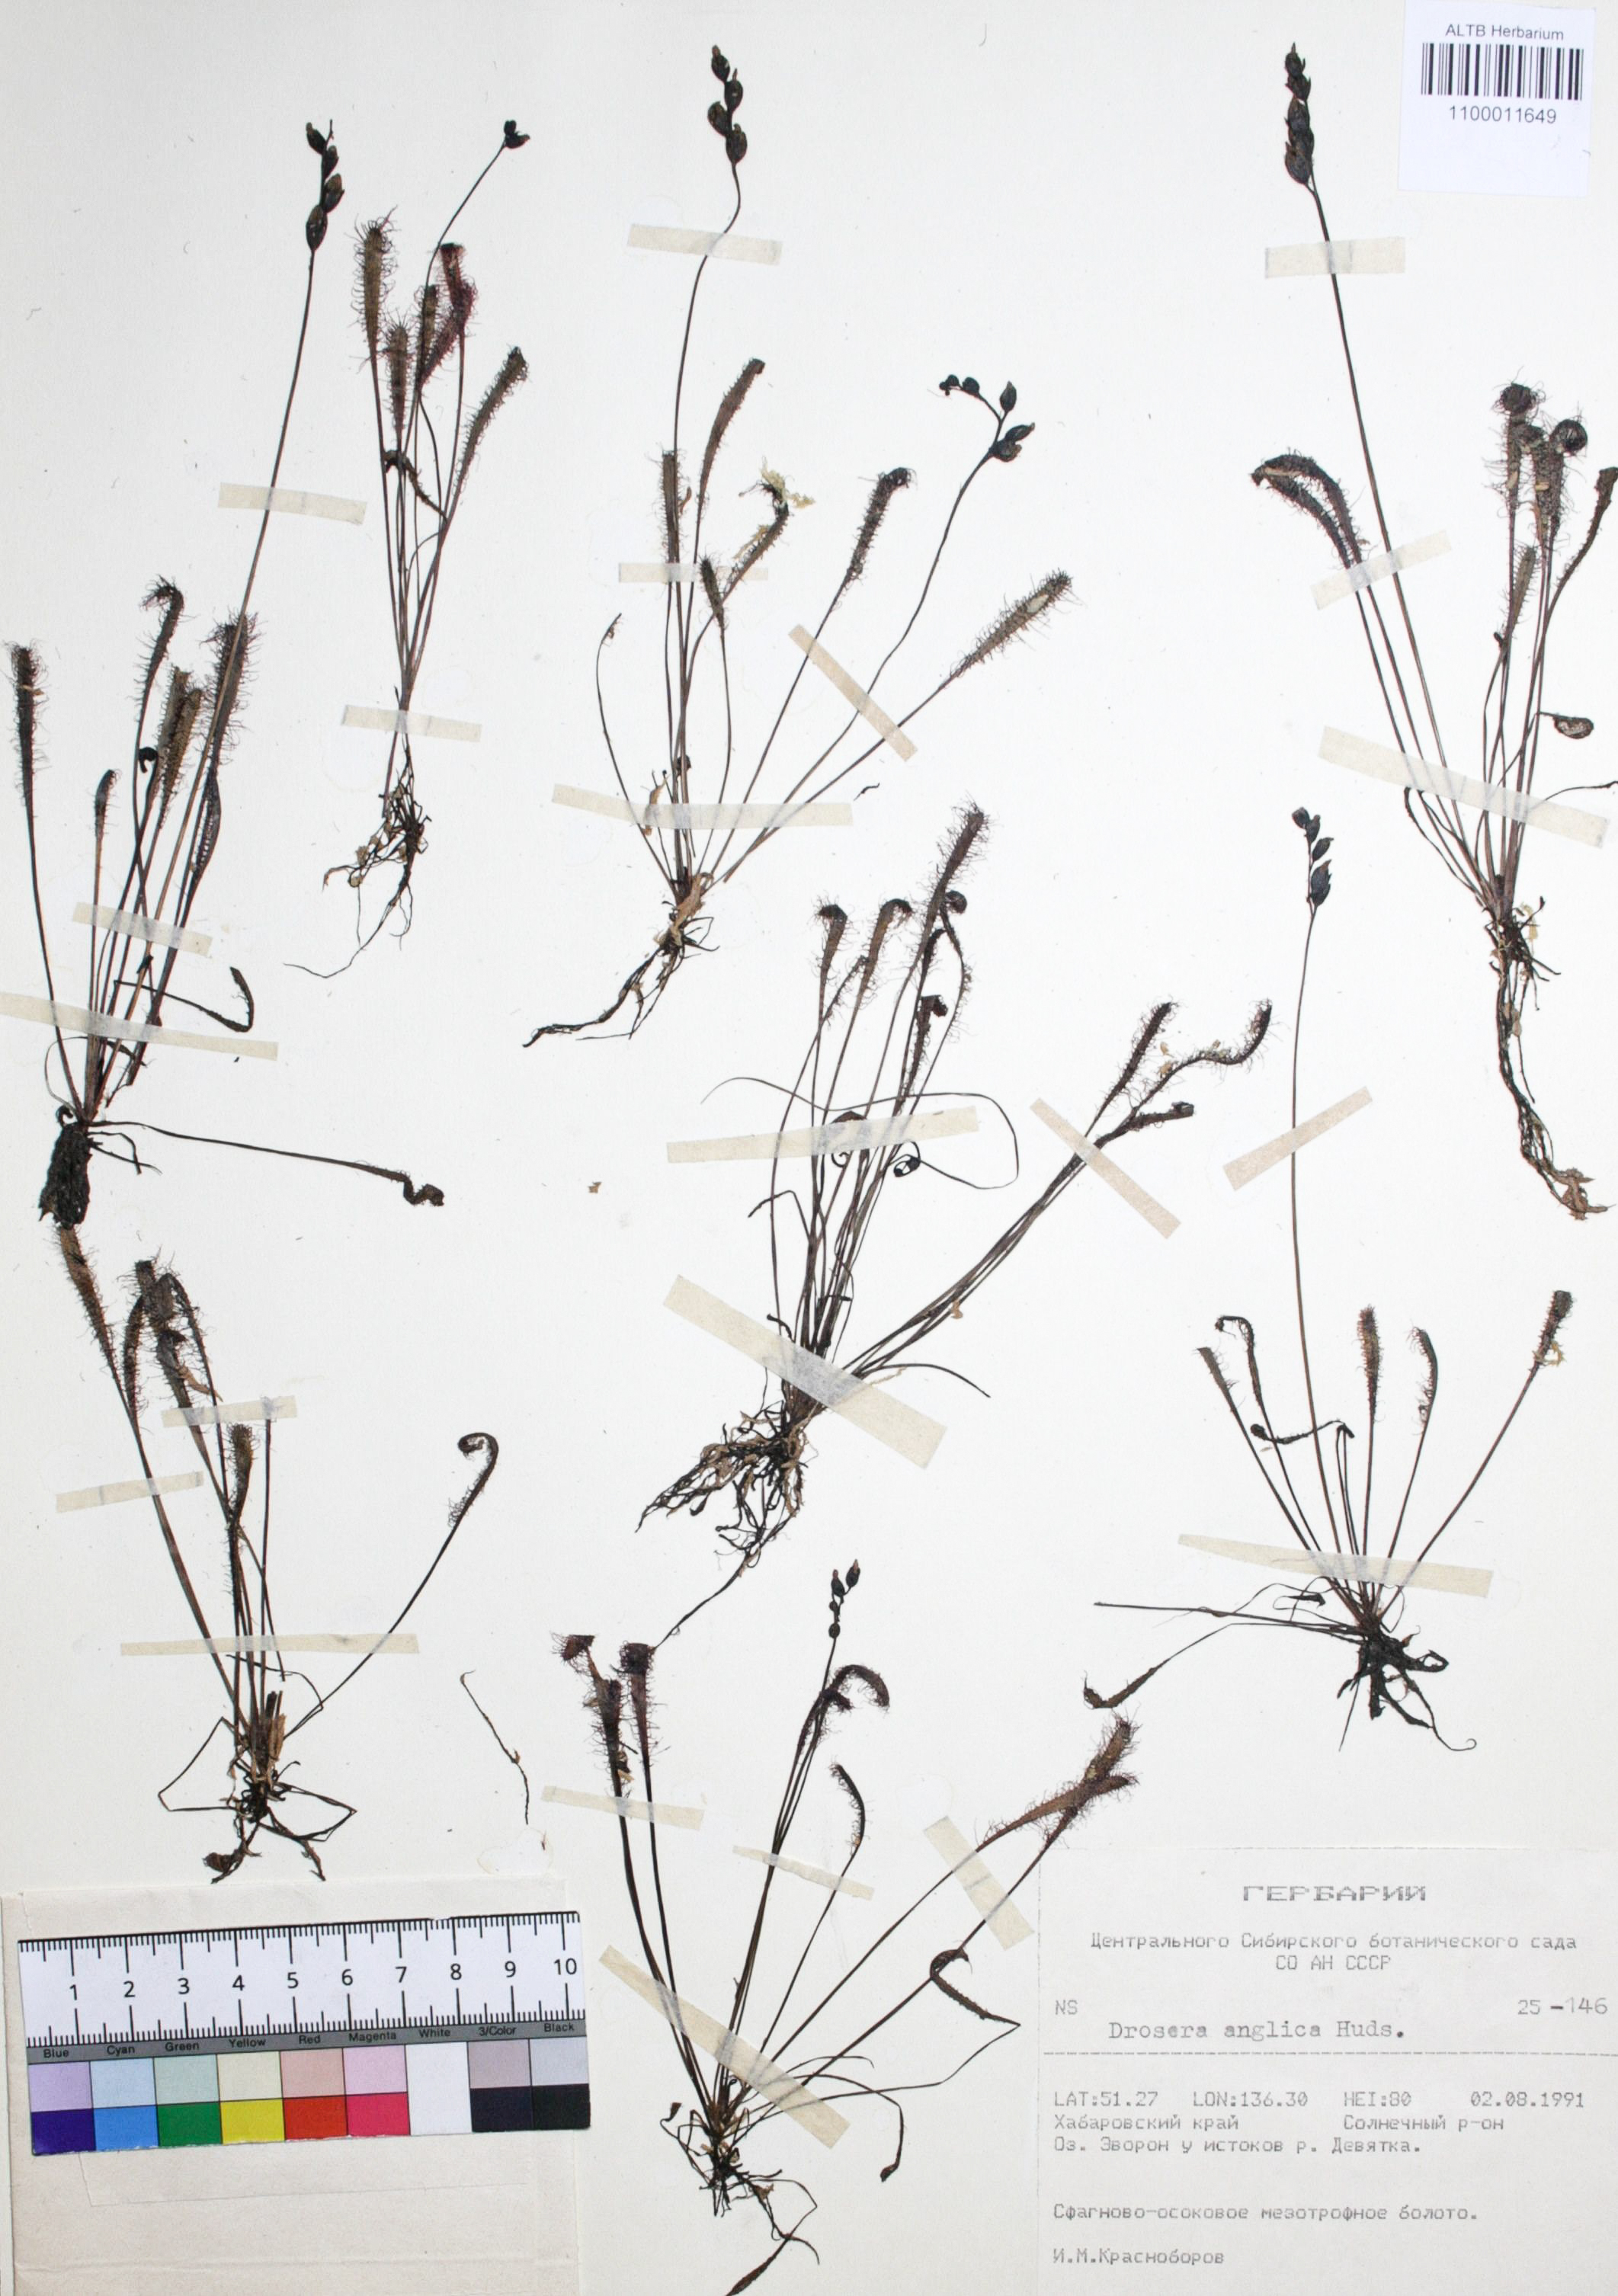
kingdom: Plantae
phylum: Tracheophyta
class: Magnoliopsida
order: Caryophyllales
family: Droseraceae
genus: Drosera
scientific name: Drosera anglica
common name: Great sundew
